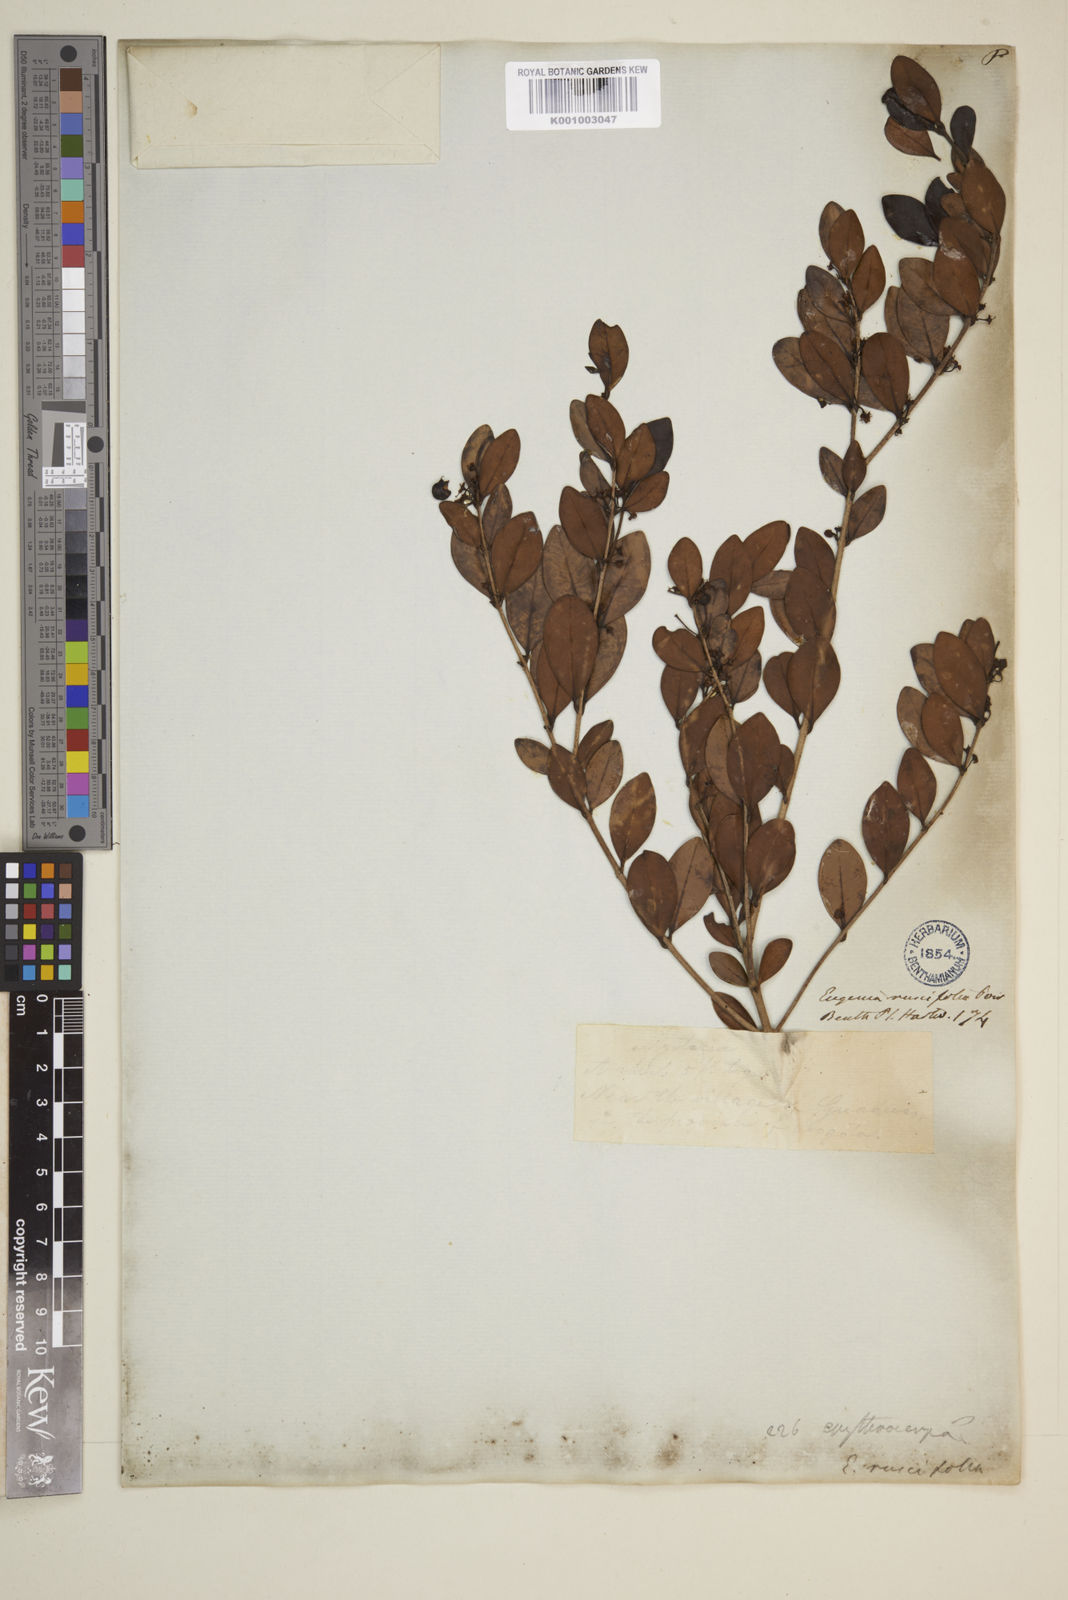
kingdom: Plantae
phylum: Tracheophyta
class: Magnoliopsida
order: Myrtales
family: Myrtaceae
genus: Eugenia
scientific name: Eugenia ruscifolia
